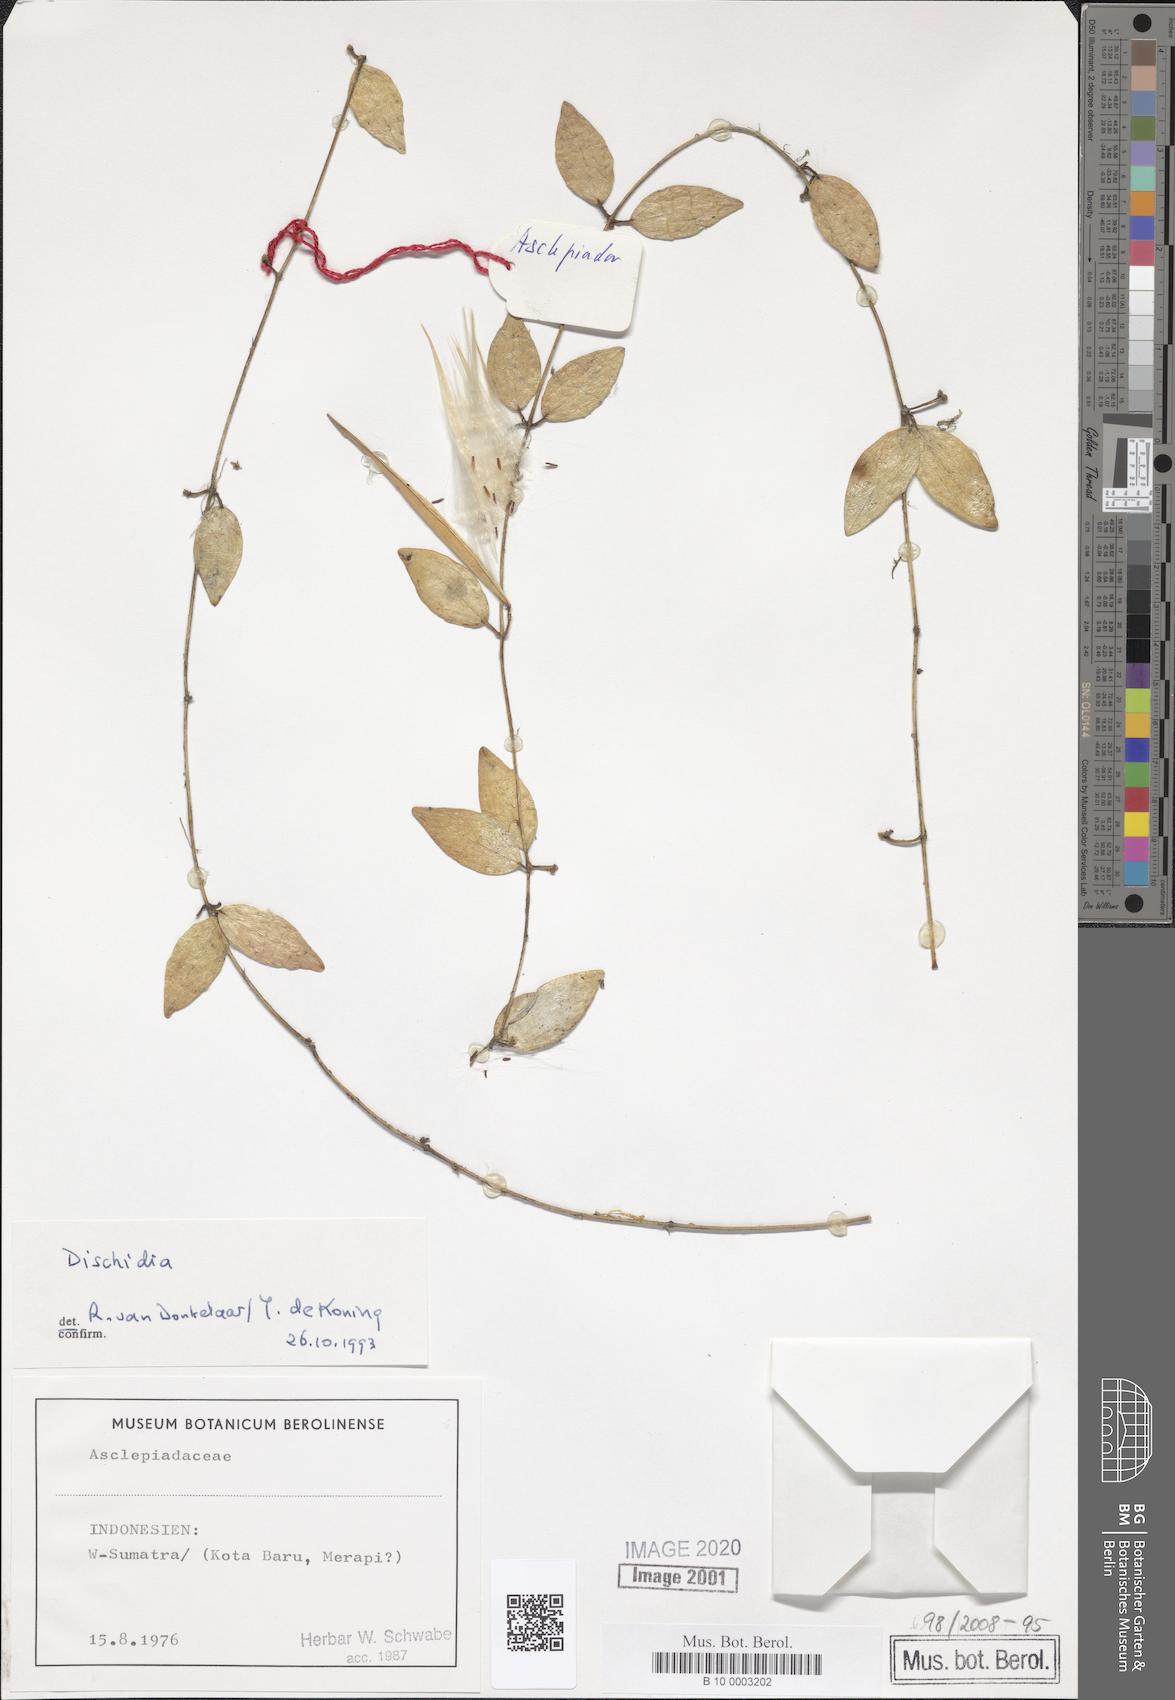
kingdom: Plantae
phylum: Tracheophyta
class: Magnoliopsida
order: Gentianales
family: Apocynaceae
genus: Dischidia
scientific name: Dischidia
